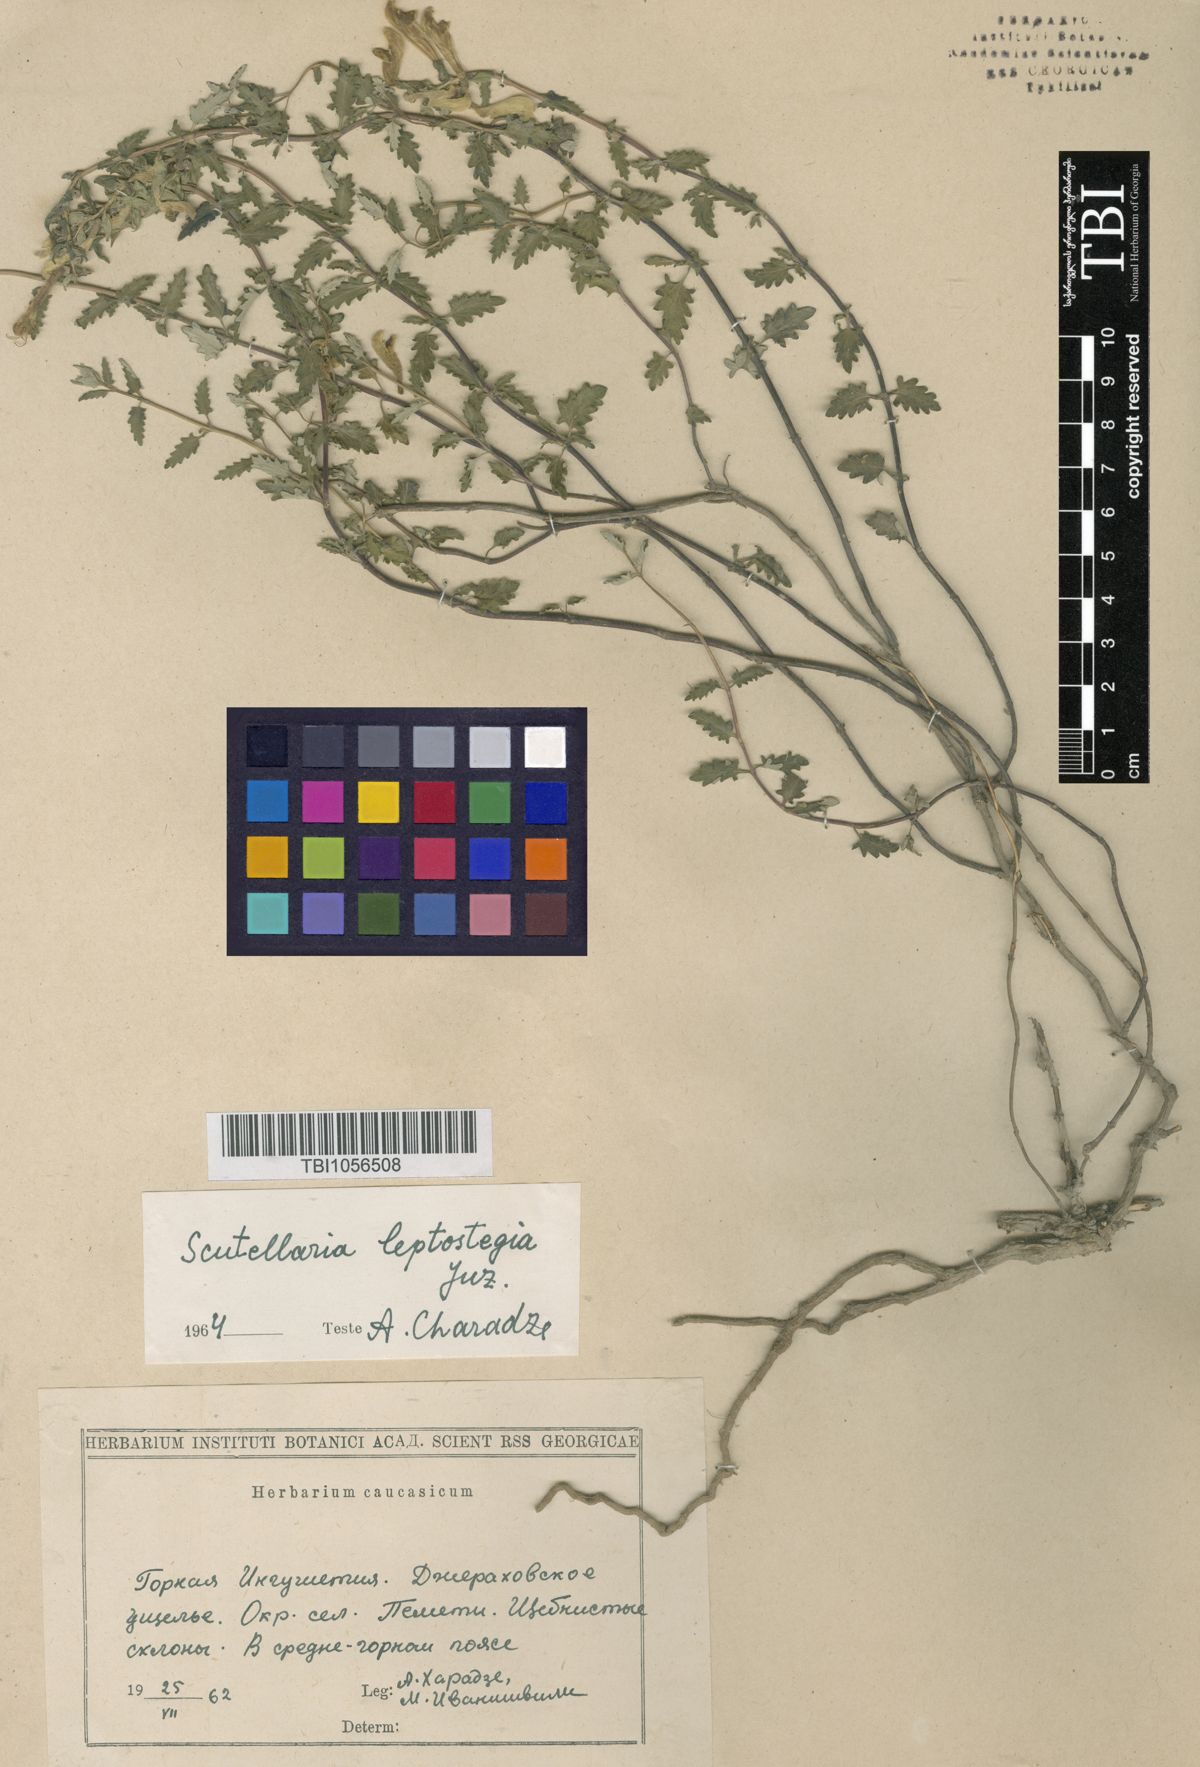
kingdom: Plantae
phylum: Tracheophyta
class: Magnoliopsida
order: Lamiales
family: Lamiaceae
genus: Scutellaria
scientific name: Scutellaria leptostegia
